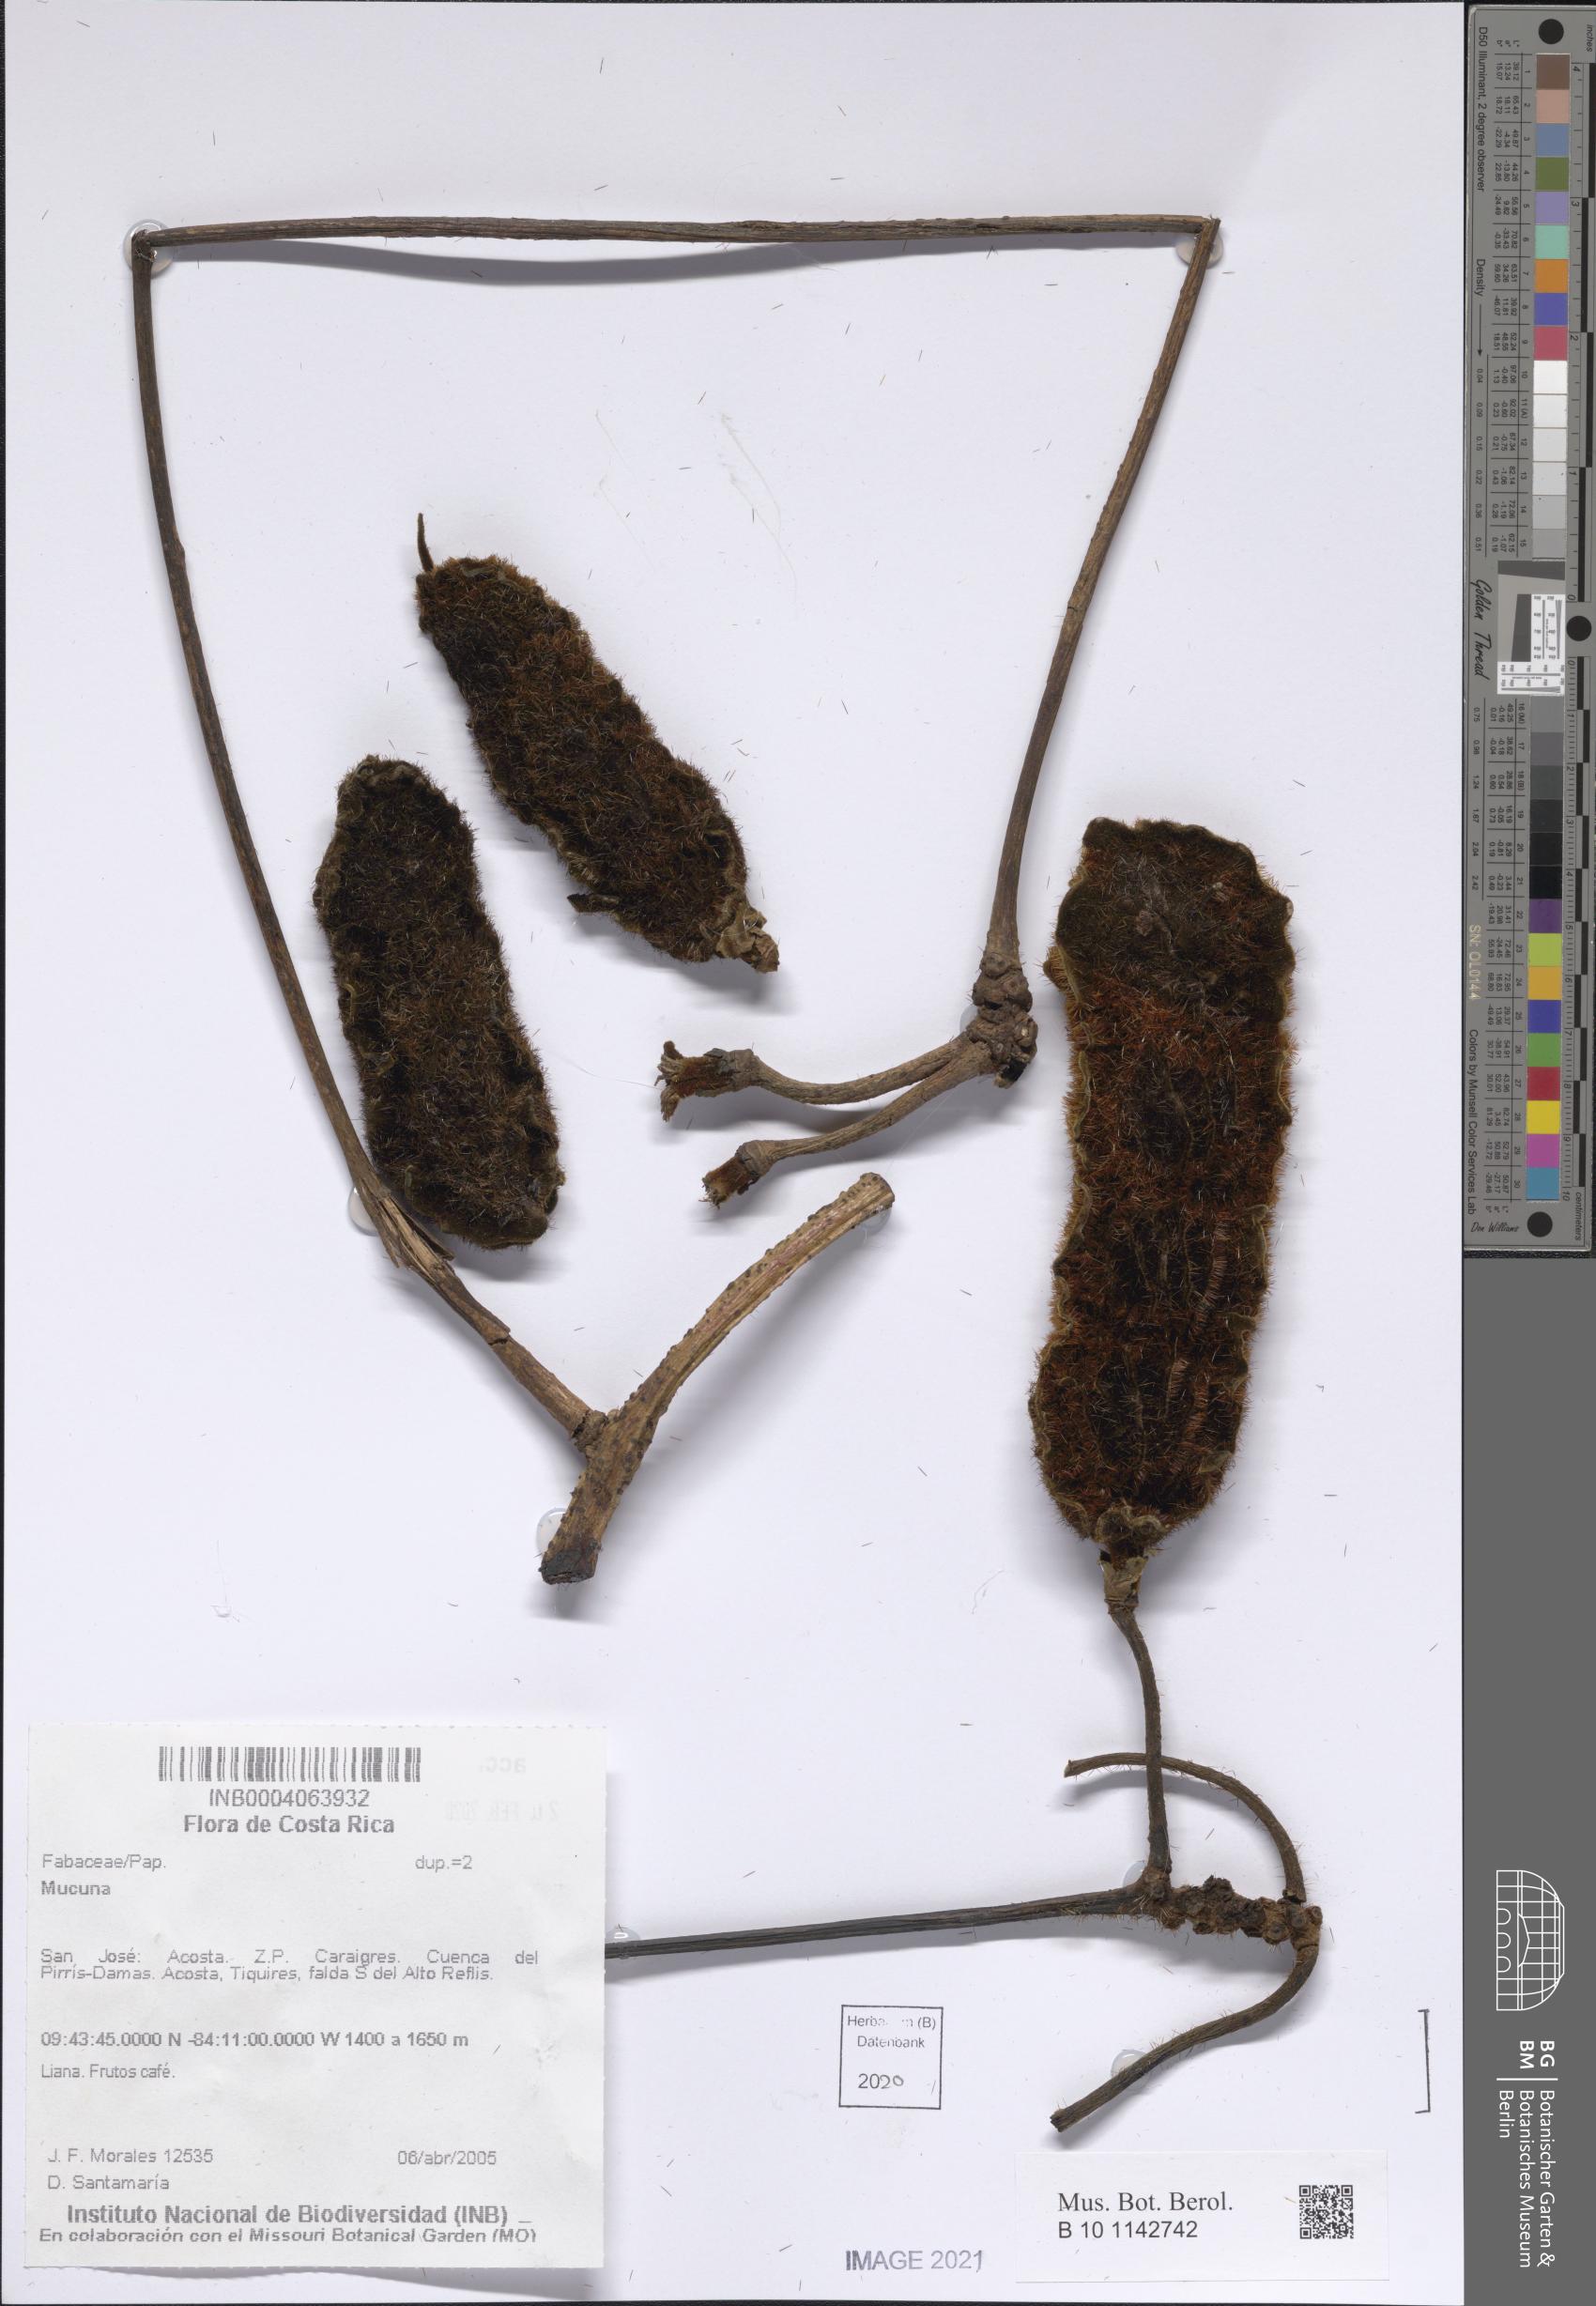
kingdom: Plantae
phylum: Tracheophyta
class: Magnoliopsida
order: Fabales
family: Fabaceae
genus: Mucuna
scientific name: Mucuna
